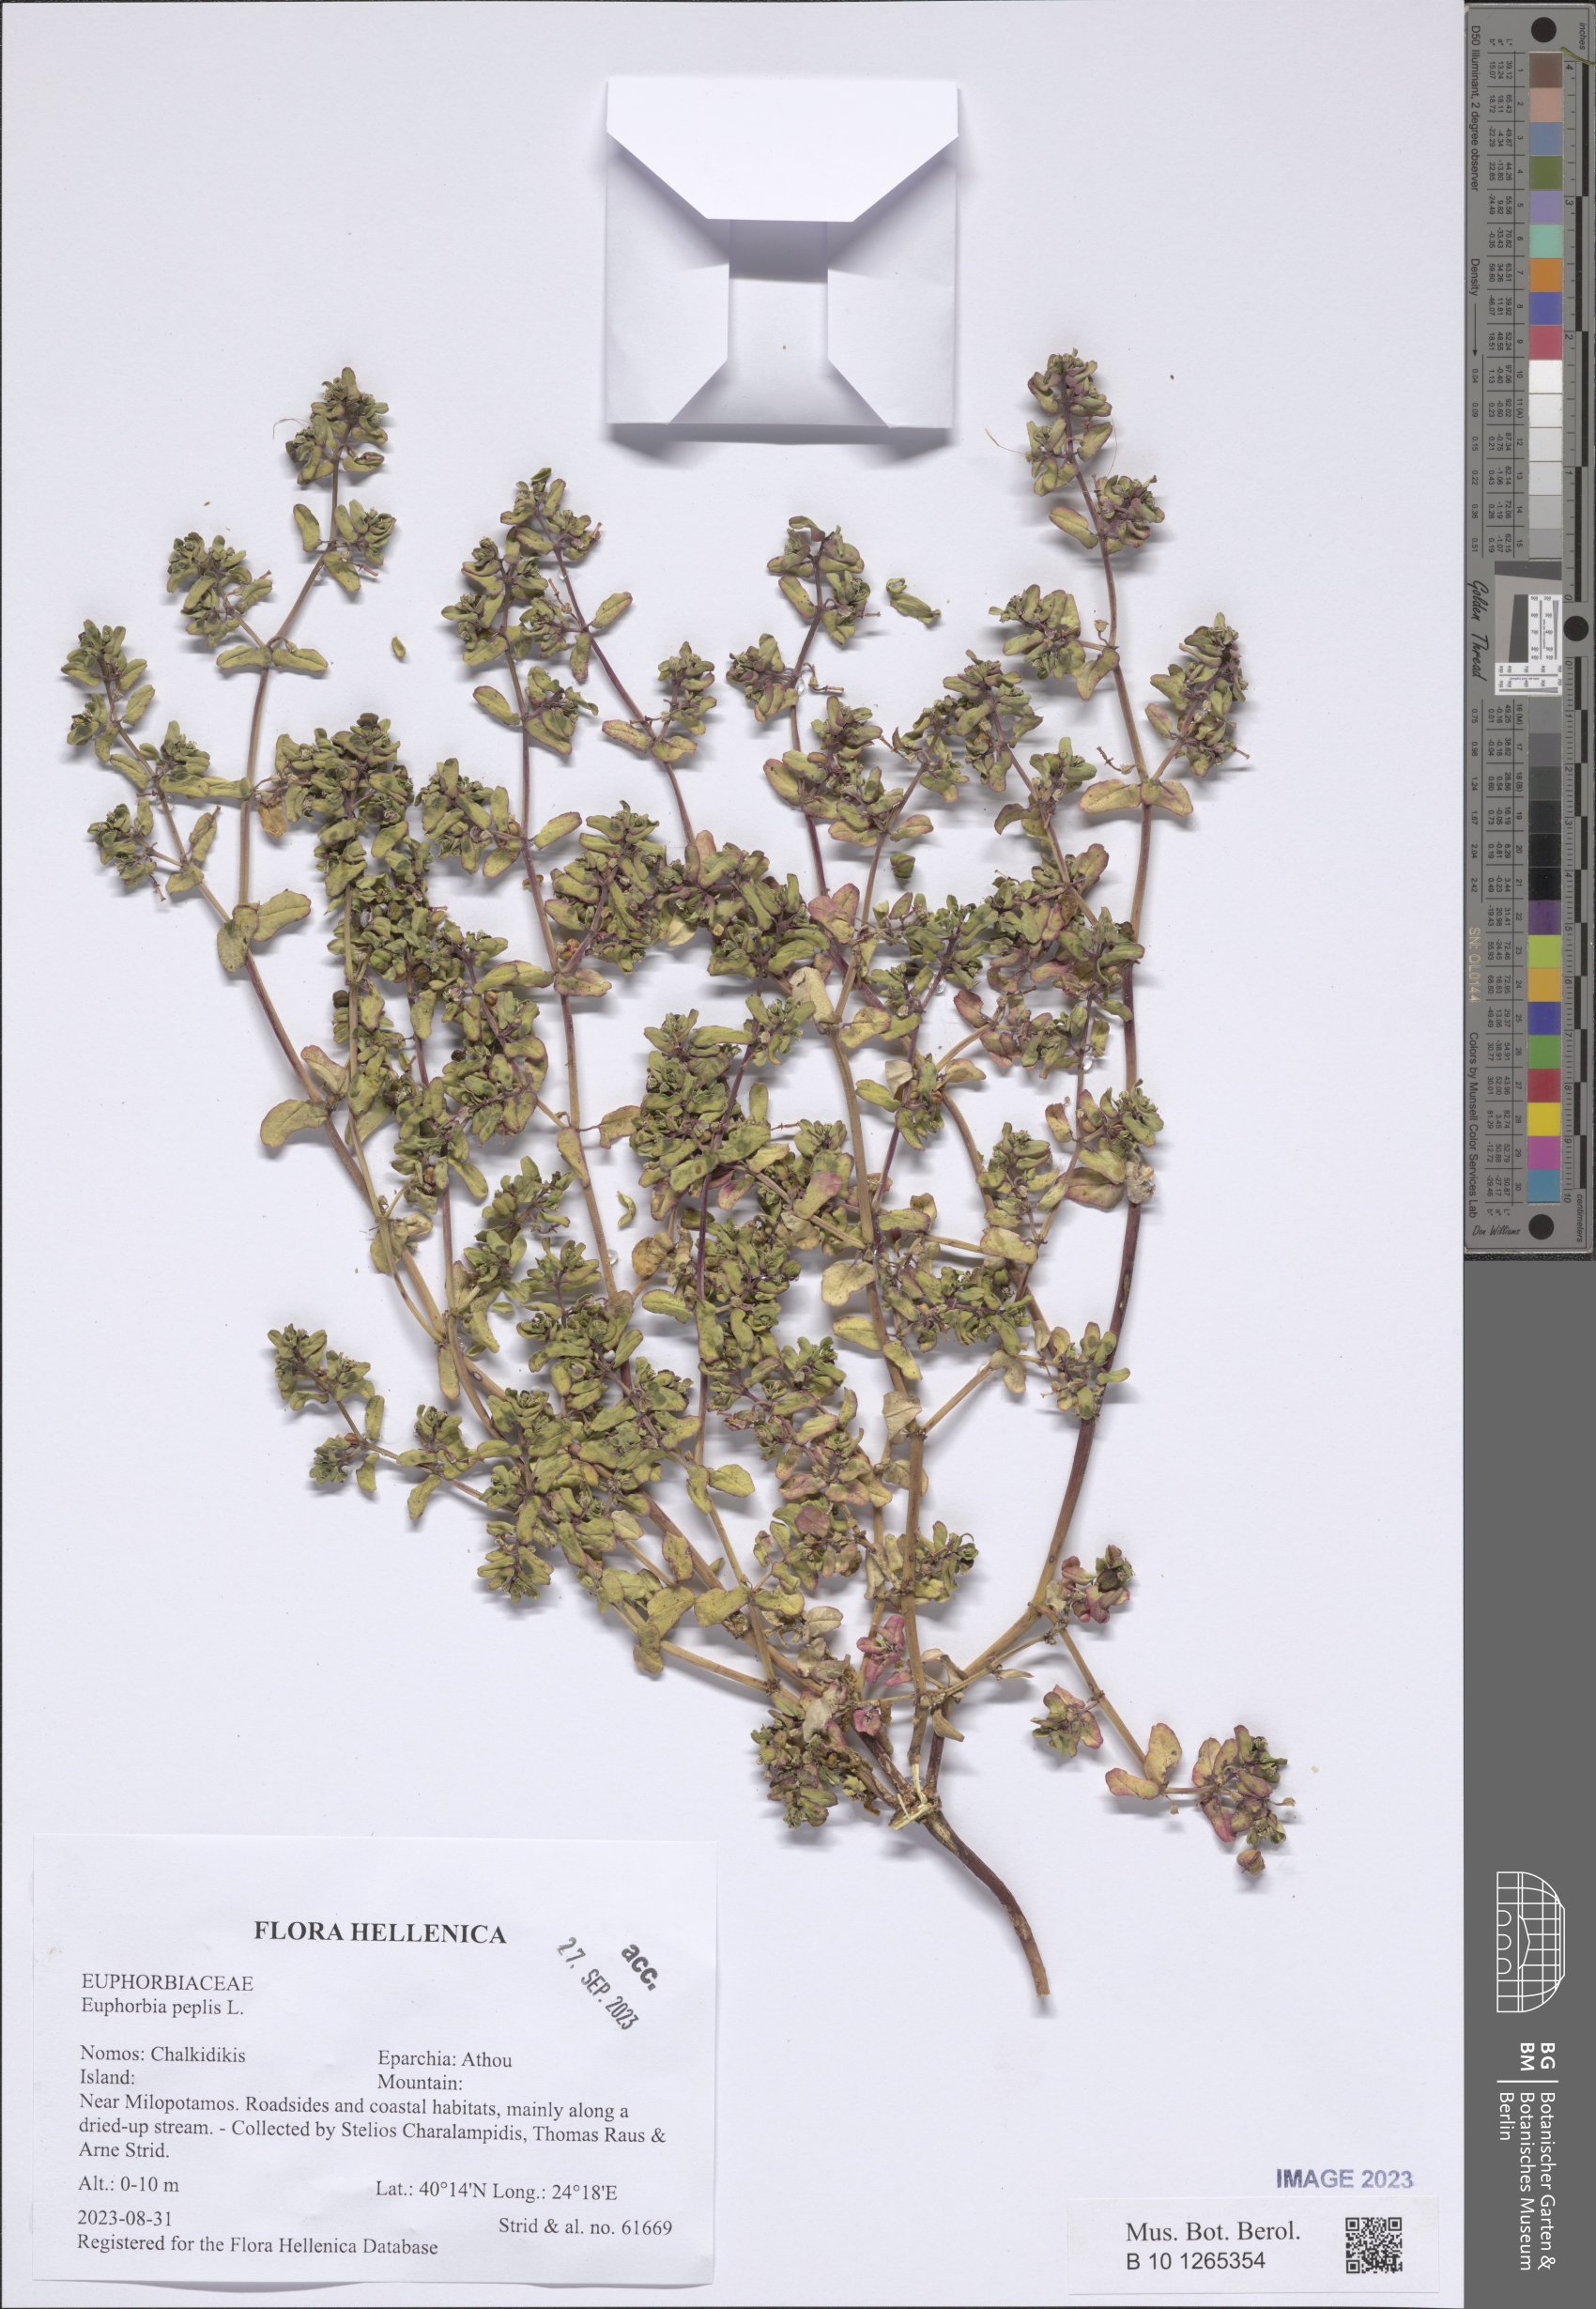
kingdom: Plantae
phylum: Tracheophyta
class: Magnoliopsida
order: Malpighiales
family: Euphorbiaceae
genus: Euphorbia
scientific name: Euphorbia peplis
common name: Purple spurge
